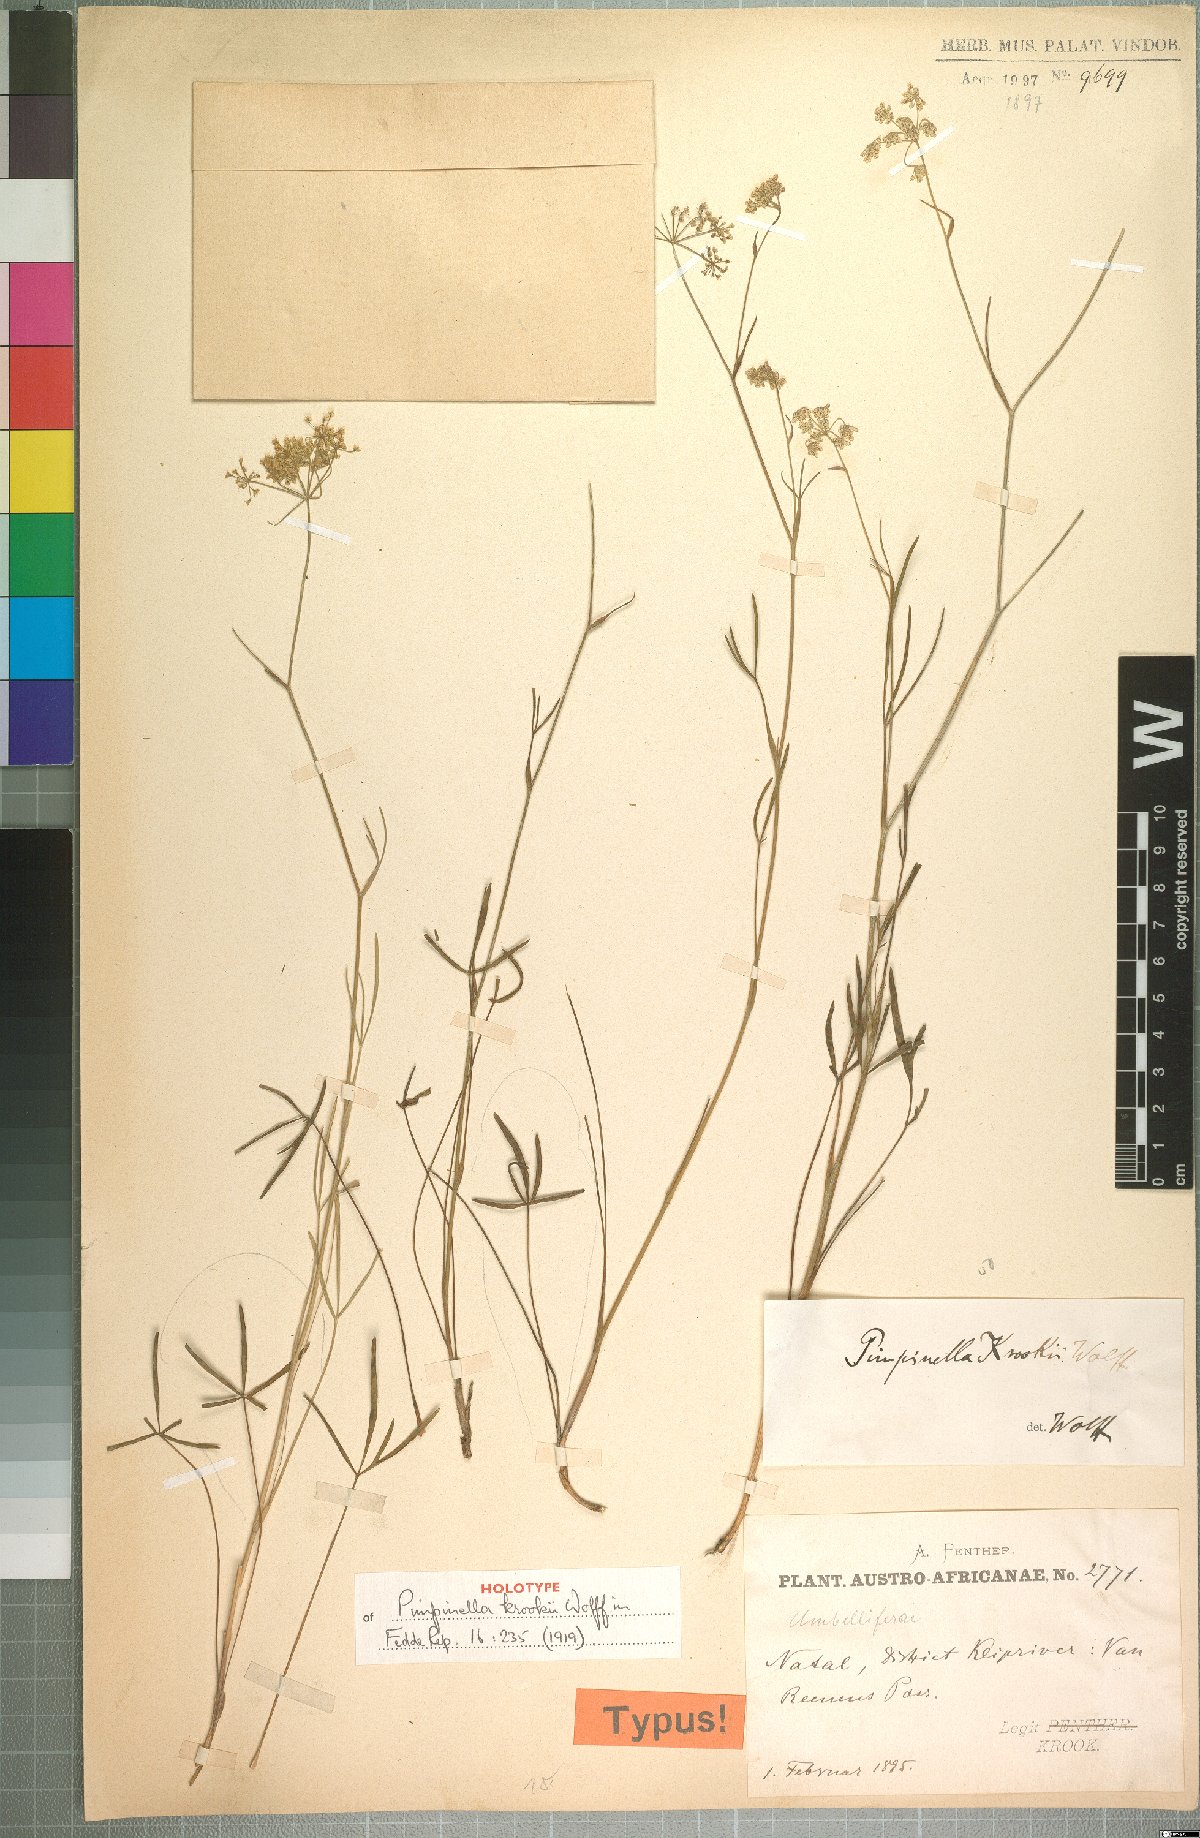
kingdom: Plantae
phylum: Tracheophyta
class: Magnoliopsida
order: Apiales
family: Apiaceae
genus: Pimpinella
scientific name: Pimpinella caffra
